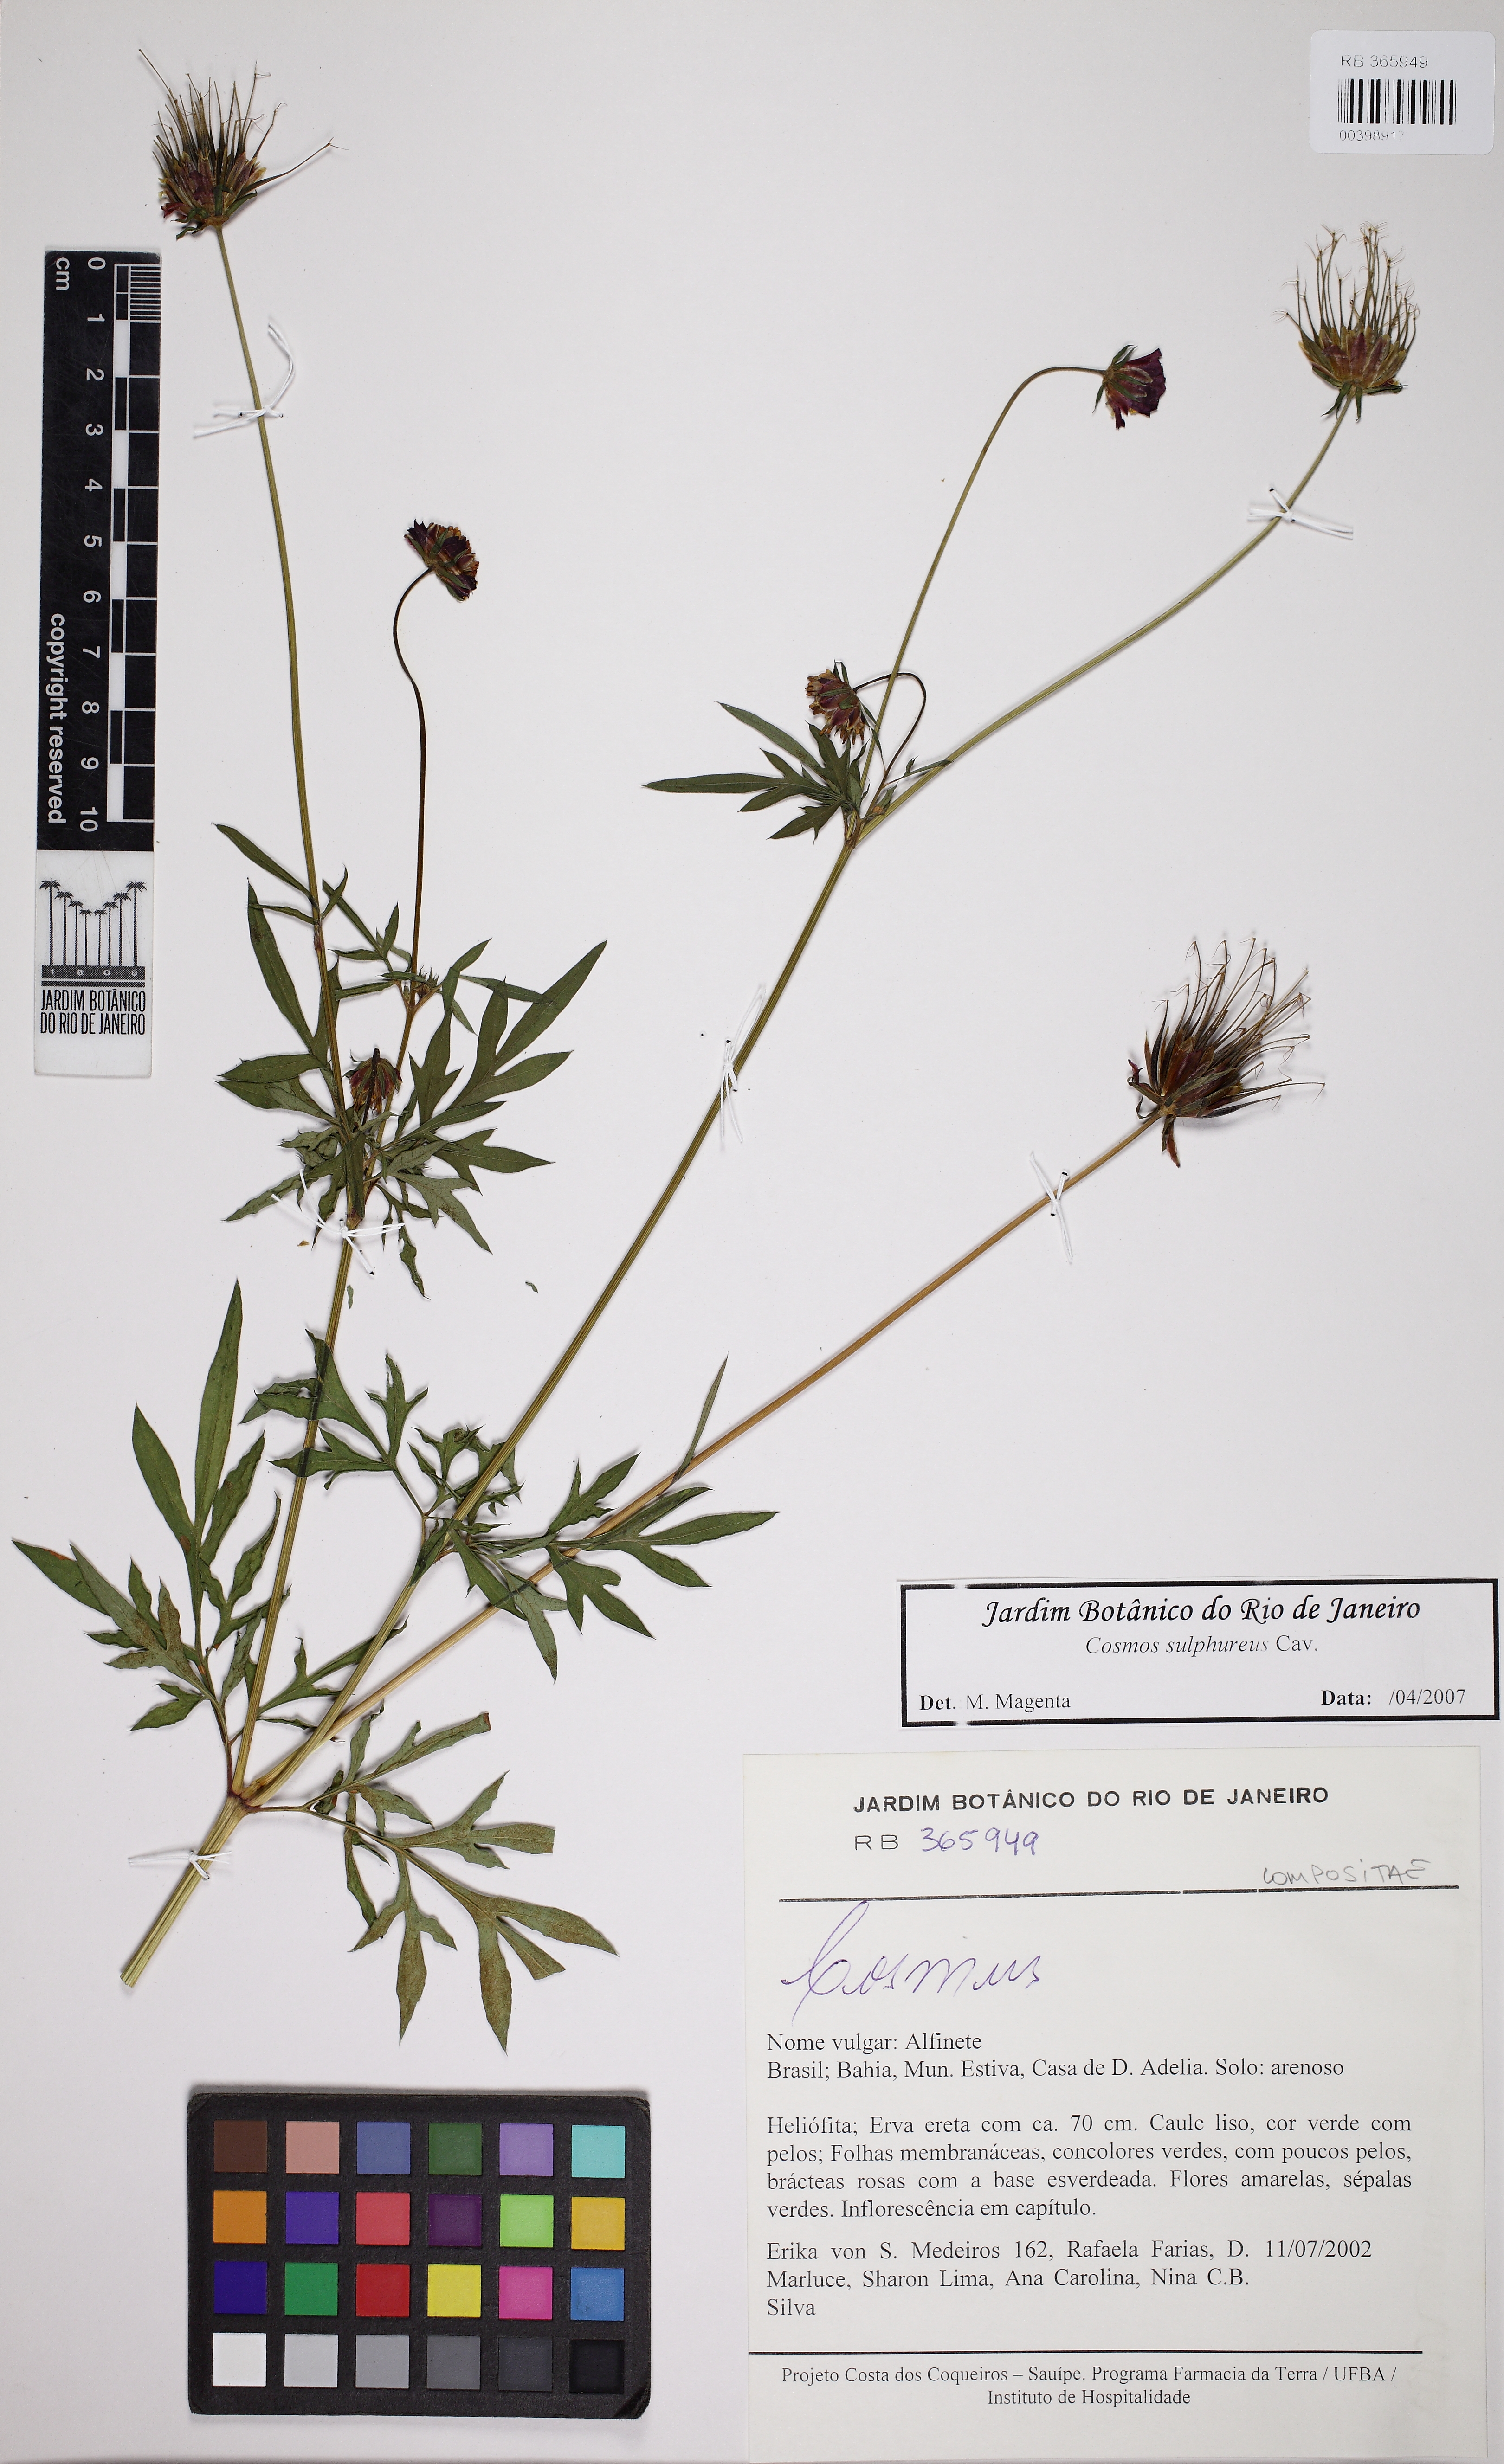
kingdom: Plantae
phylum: Tracheophyta
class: Magnoliopsida
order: Asterales
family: Asteraceae
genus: Cosmos
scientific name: Cosmos sulphureus
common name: Sulphur cosmos
